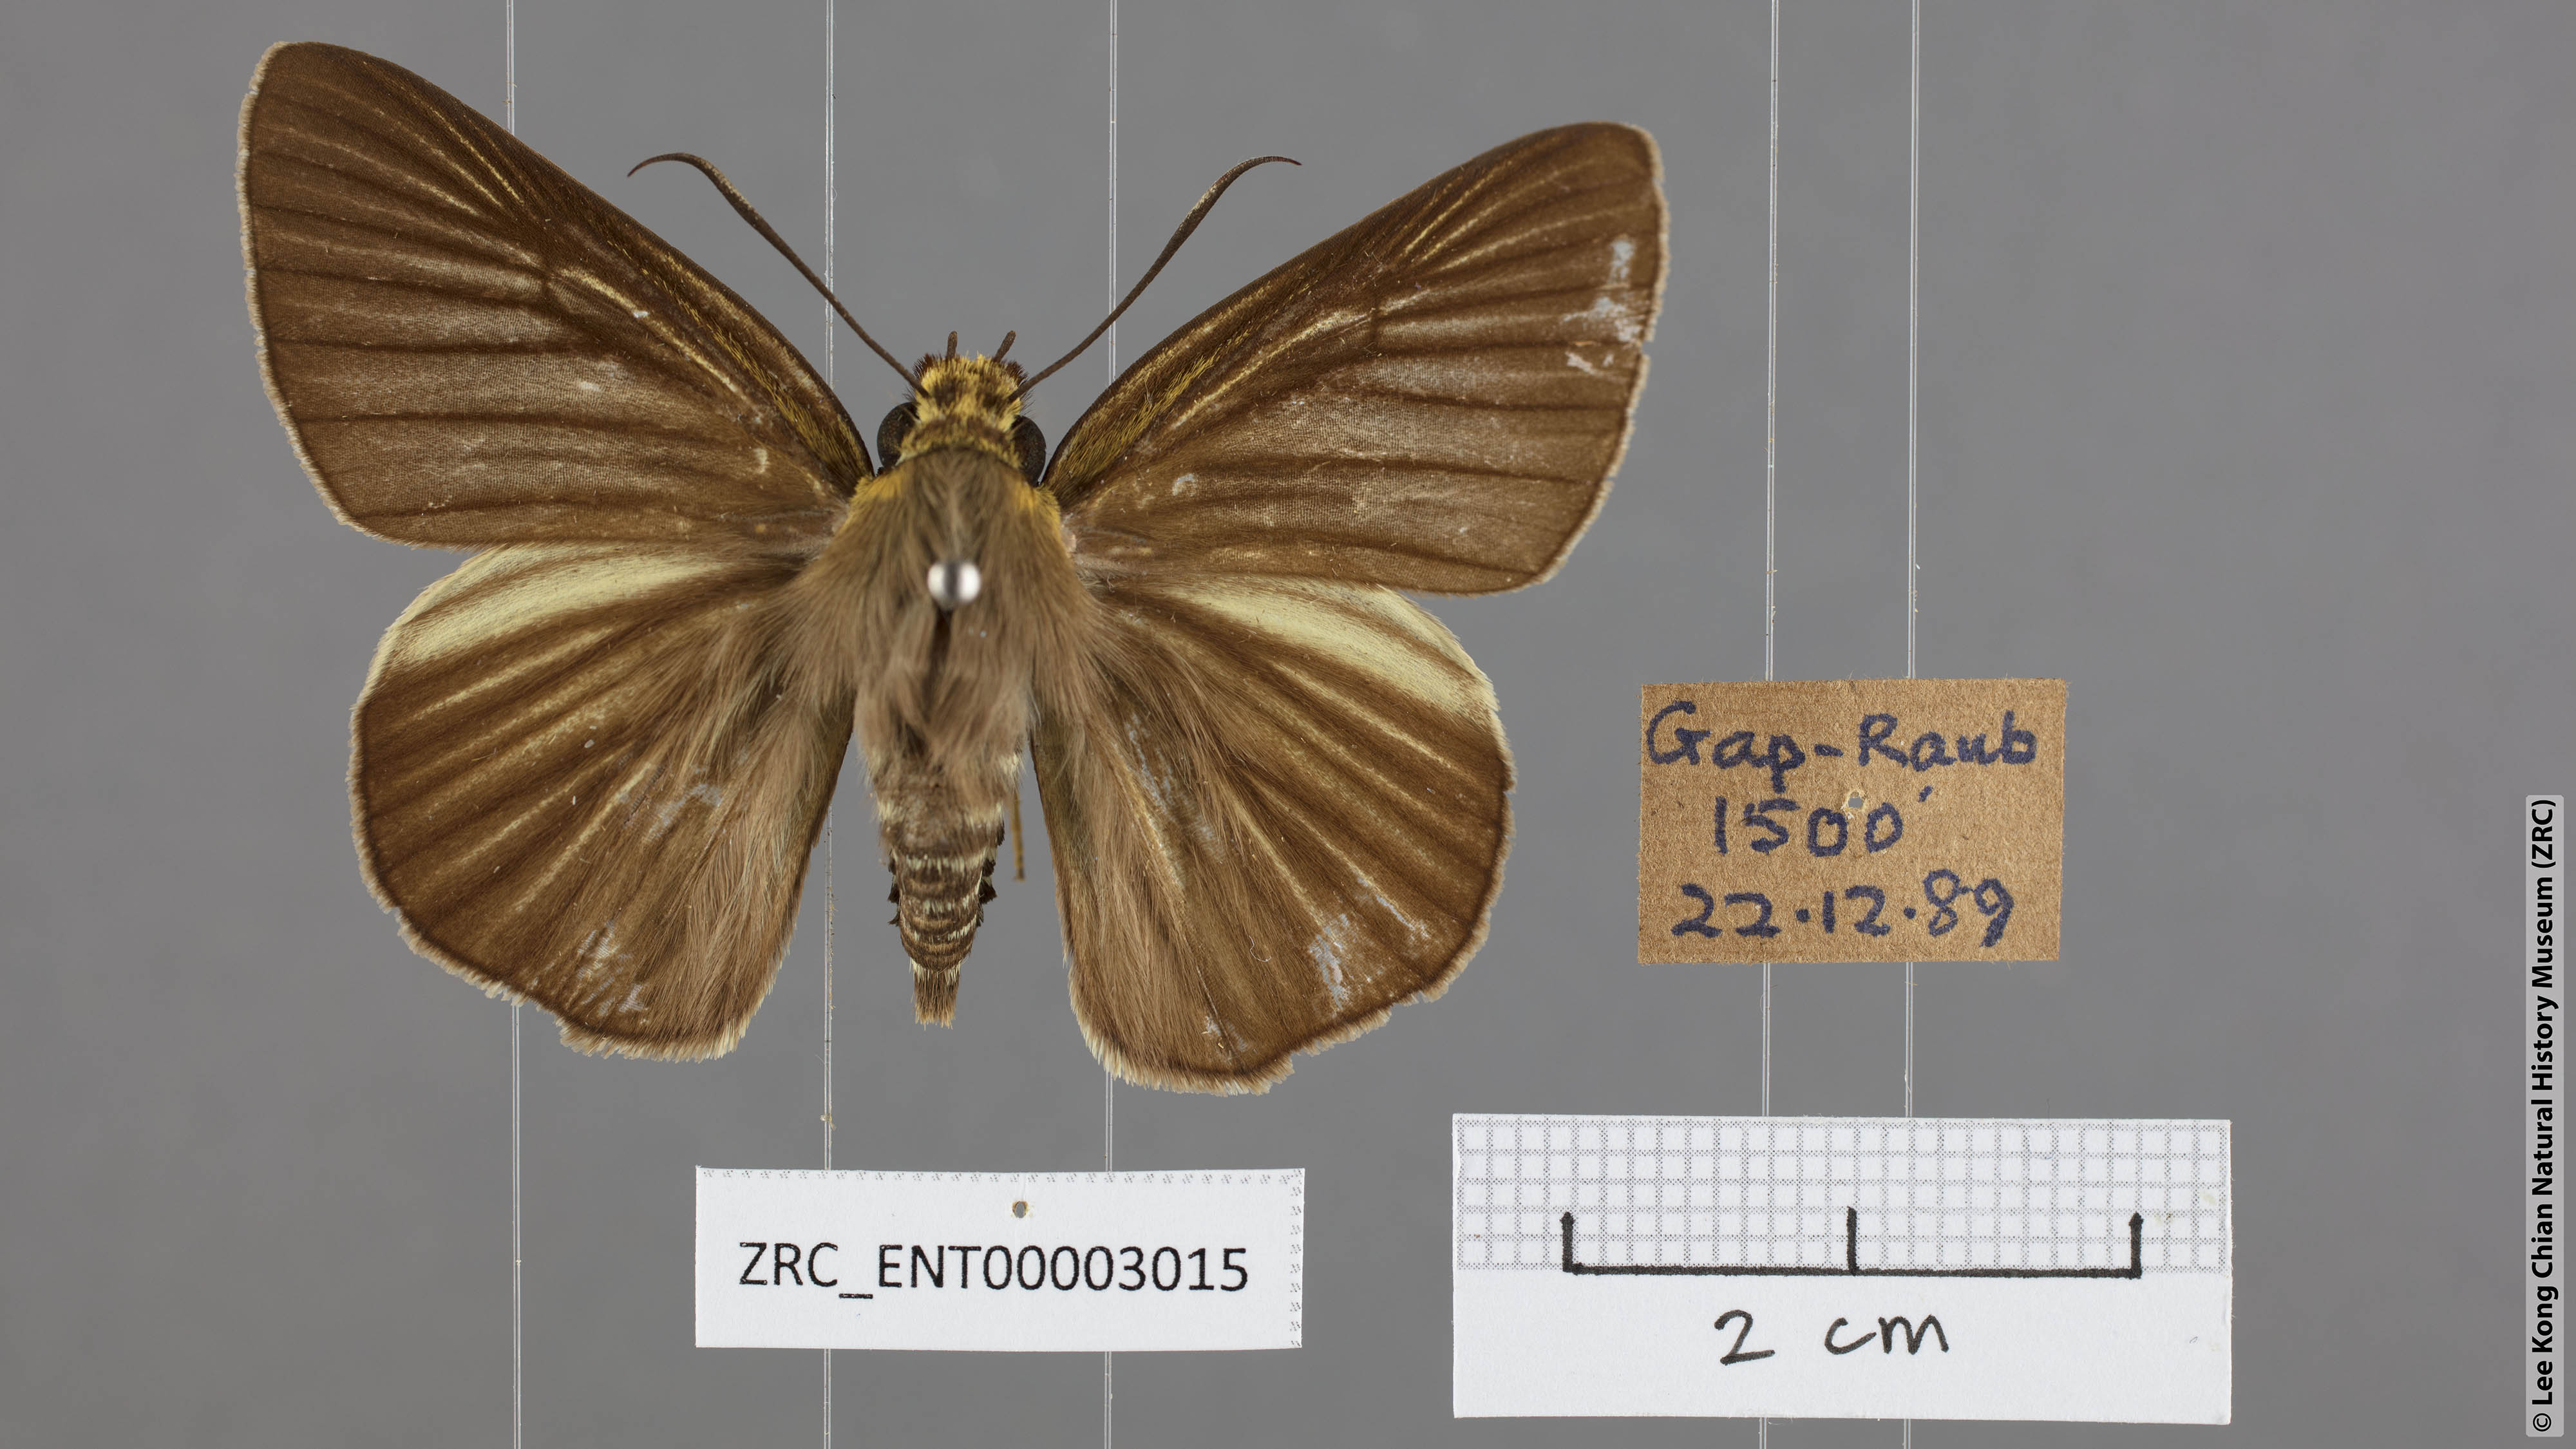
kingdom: Animalia
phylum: Arthropoda
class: Insecta
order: Lepidoptera
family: Hesperiidae
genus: Bibasis
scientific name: Bibasis gomata
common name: Pale green awlet
